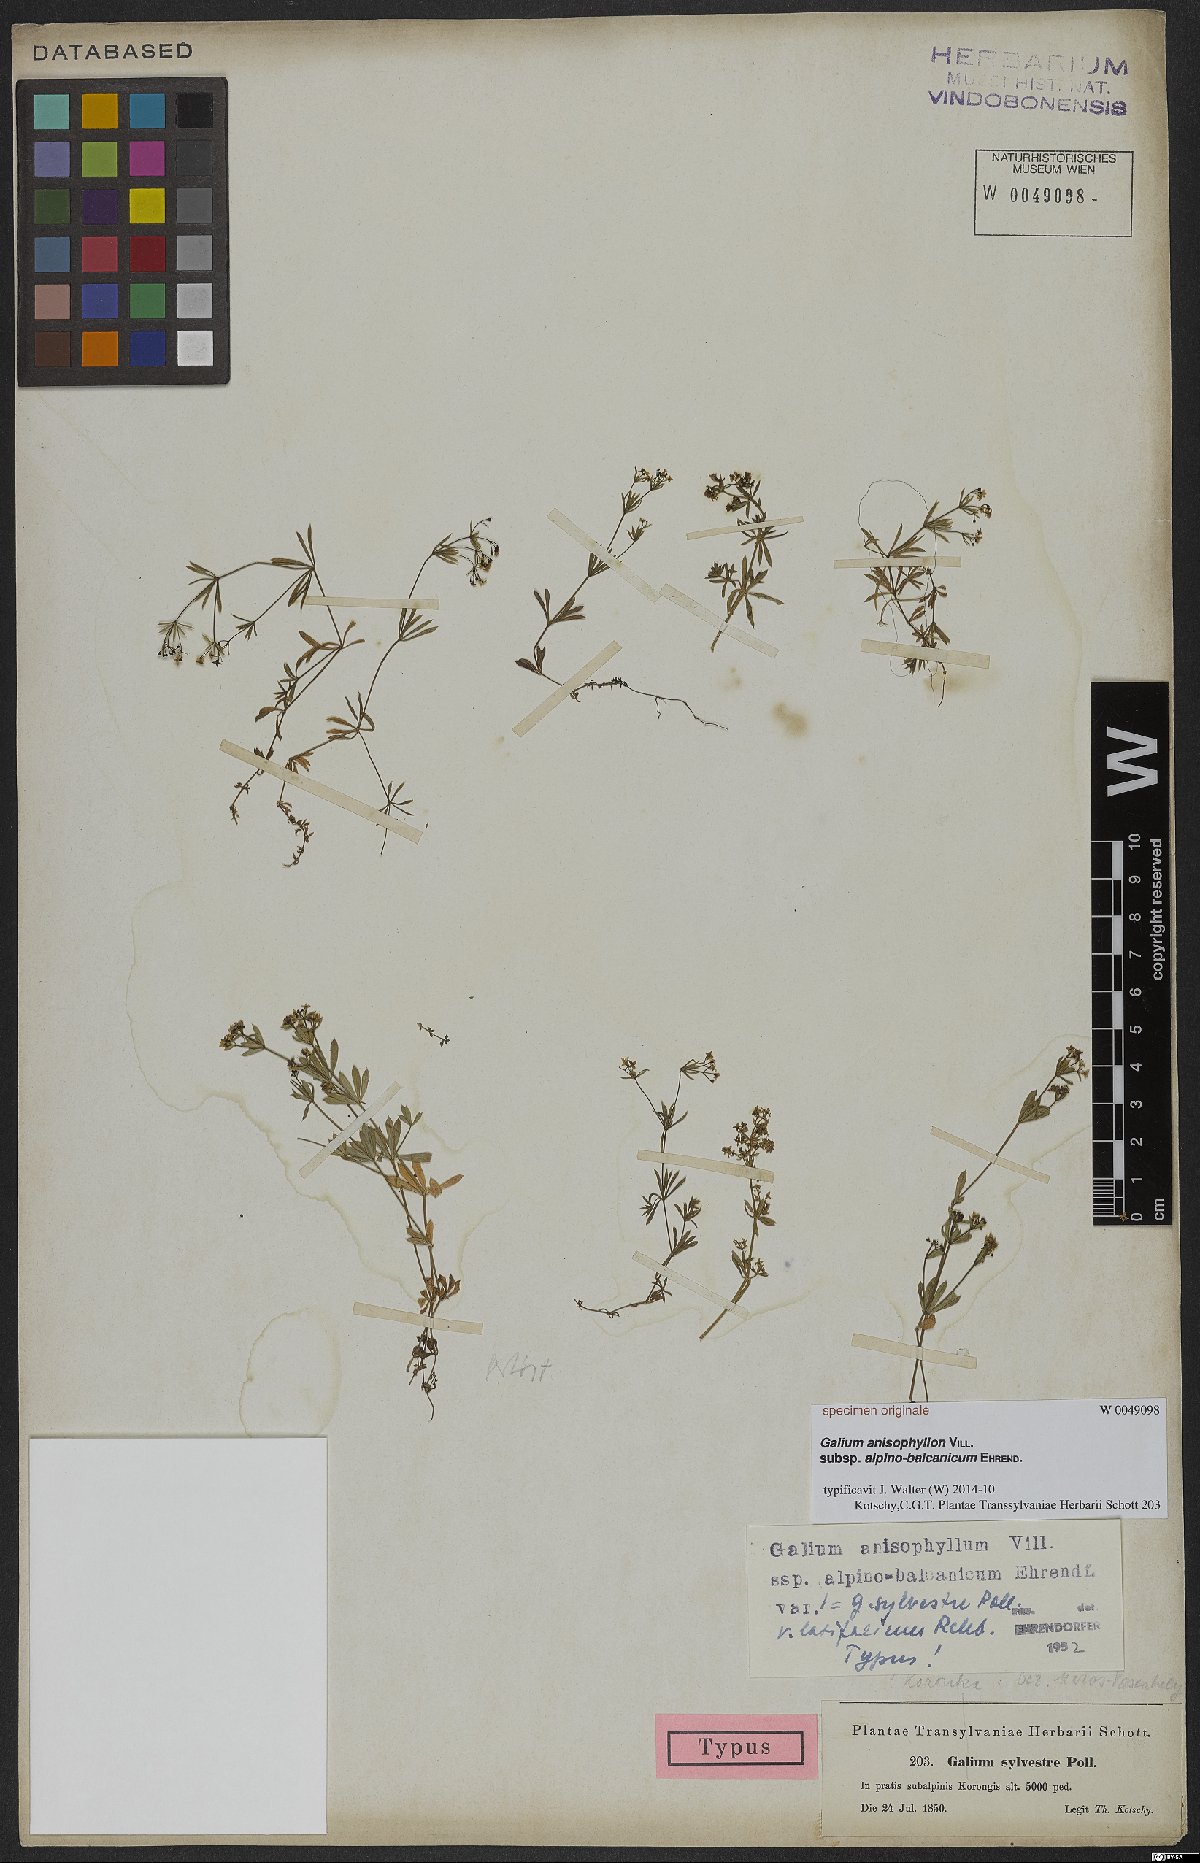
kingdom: Plantae
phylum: Tracheophyta
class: Magnoliopsida
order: Gentianales
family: Rubiaceae
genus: Galium
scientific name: Galium anisophyllon
